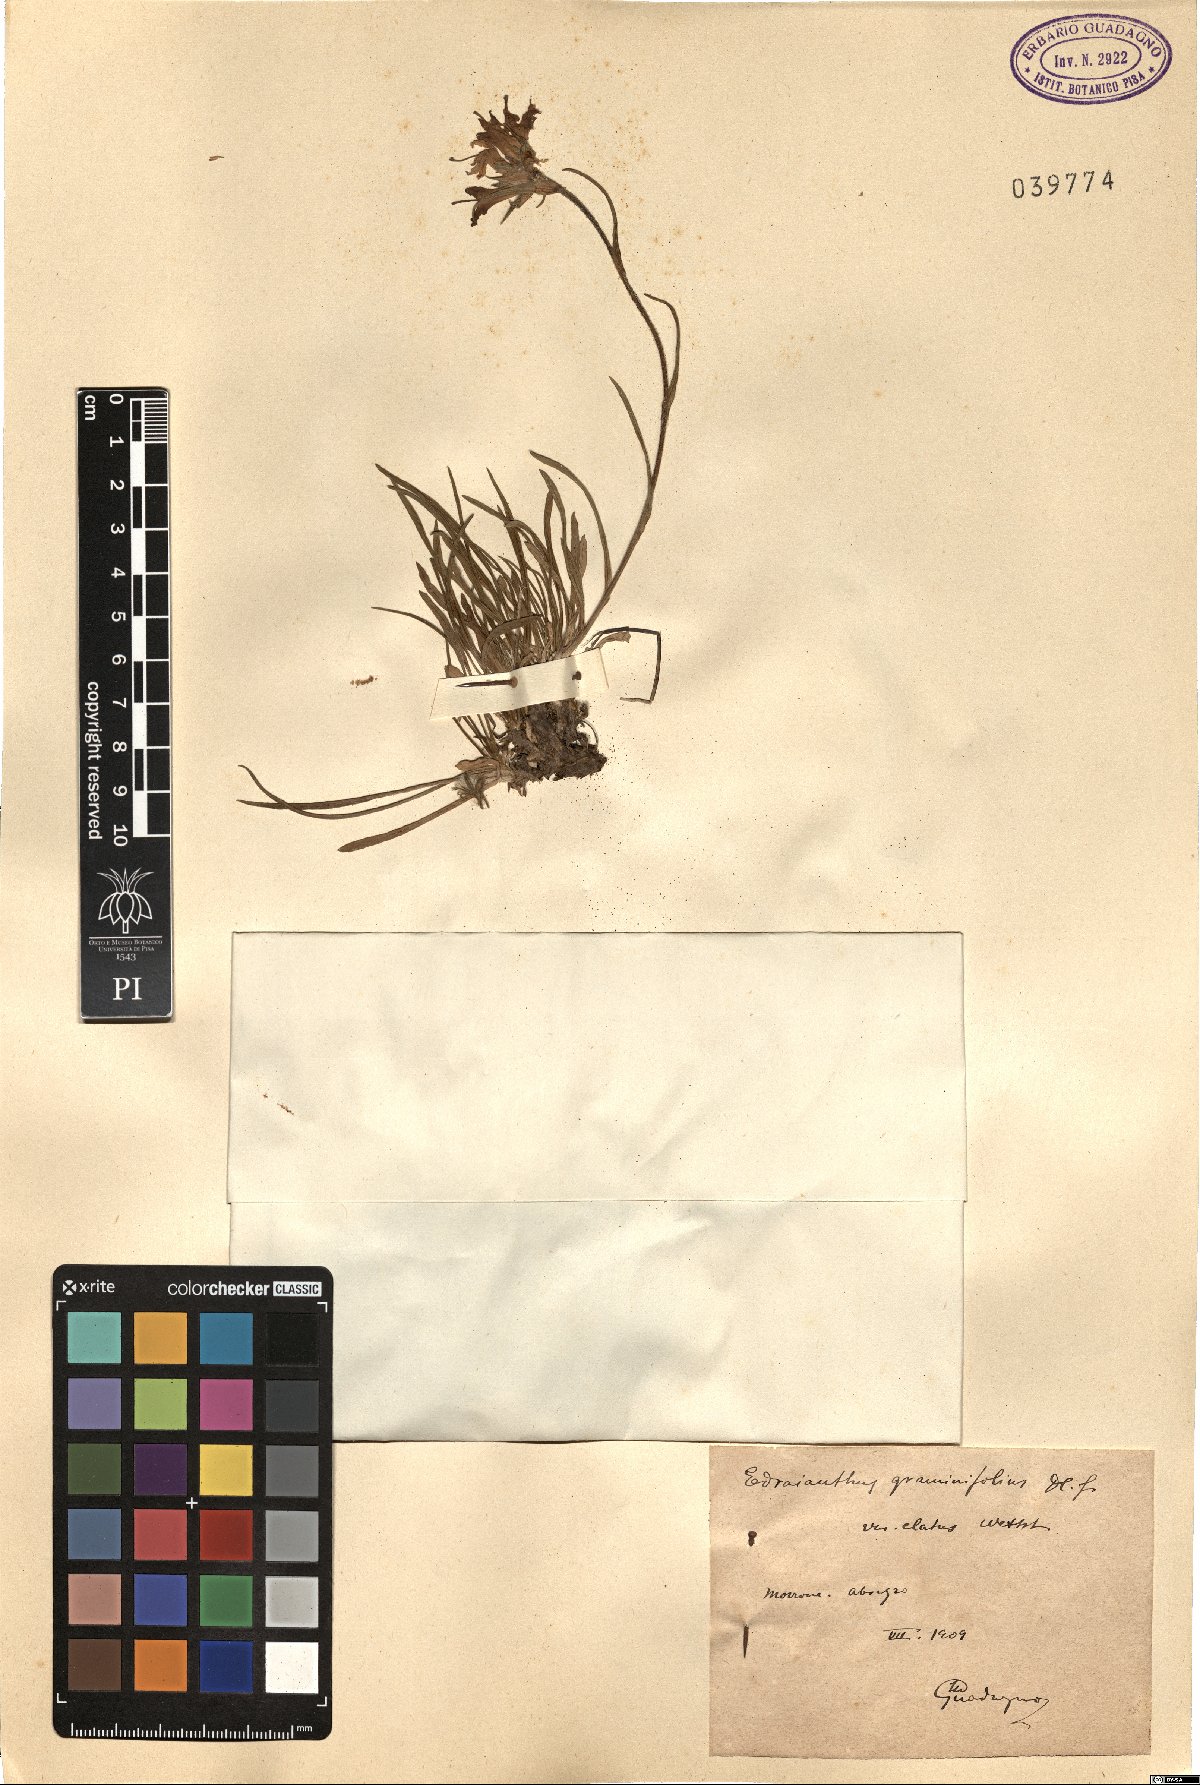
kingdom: Plantae
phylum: Tracheophyta
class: Magnoliopsida
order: Asterales
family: Campanulaceae
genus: Edraianthus
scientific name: Edraianthus graminifolius
